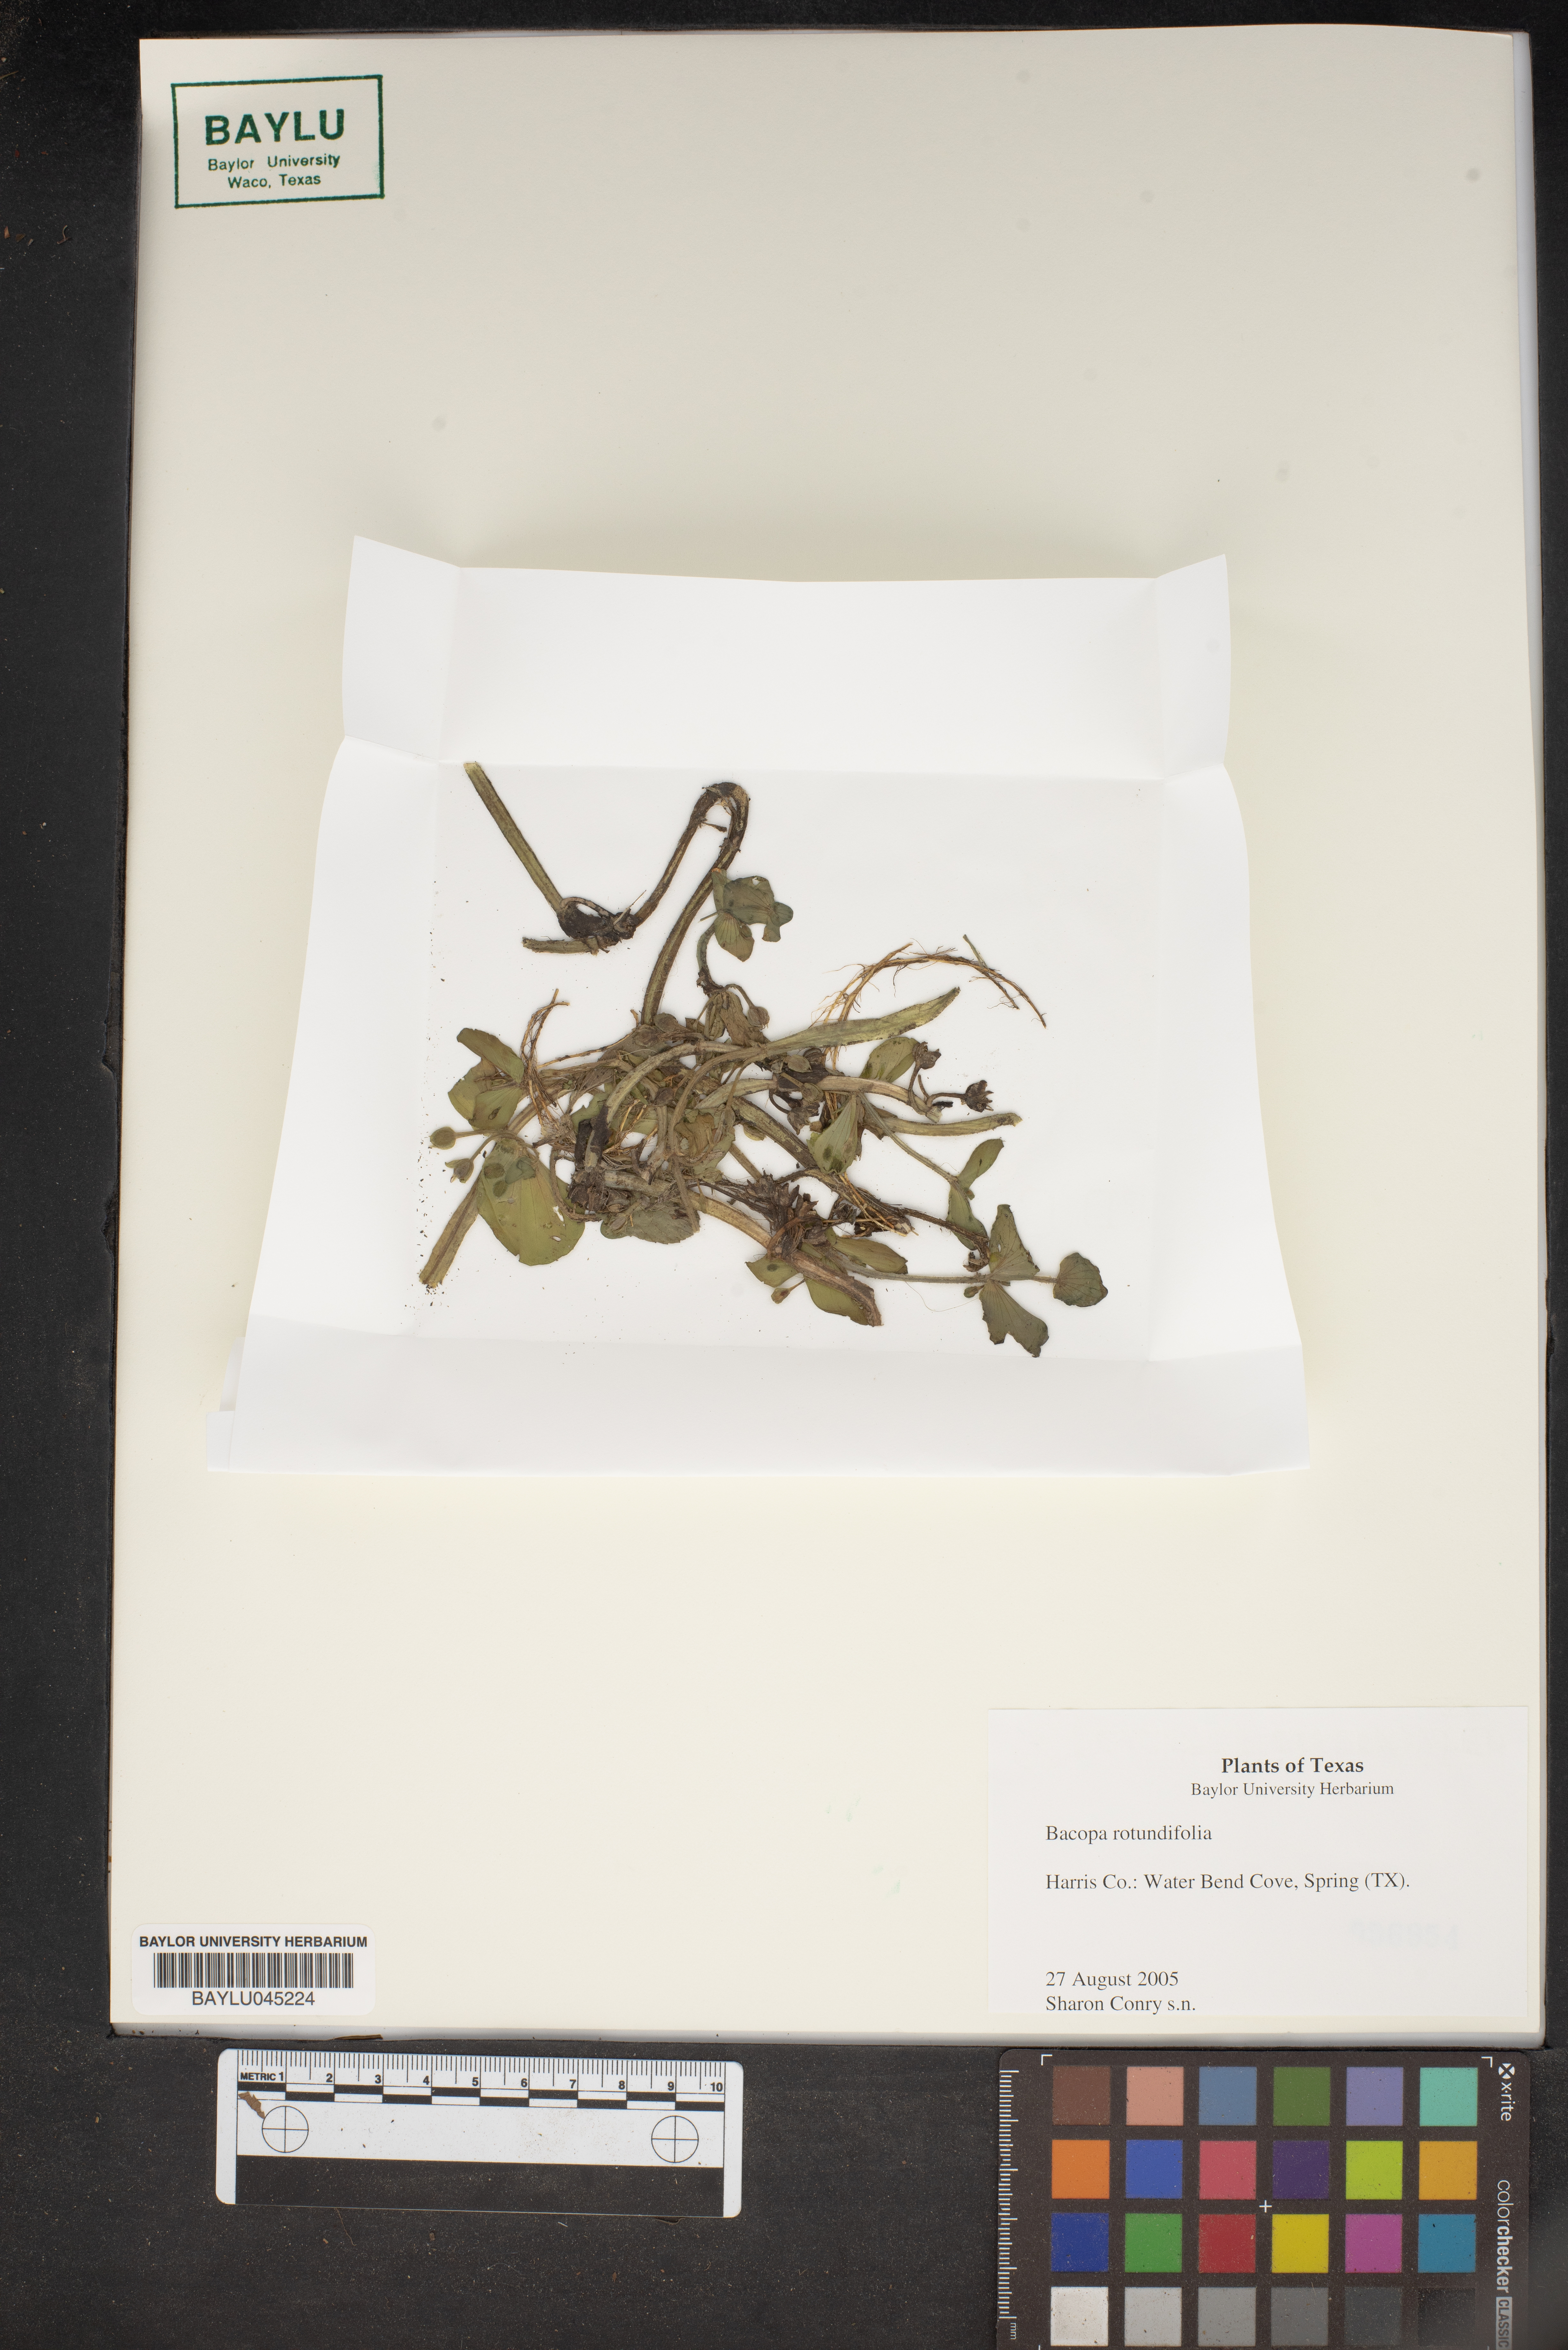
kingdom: Plantae
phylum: Tracheophyta
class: Magnoliopsida
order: Lamiales
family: Plantaginaceae
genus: Bacopa
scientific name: Bacopa rotundifolia
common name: Disc water hyssop
